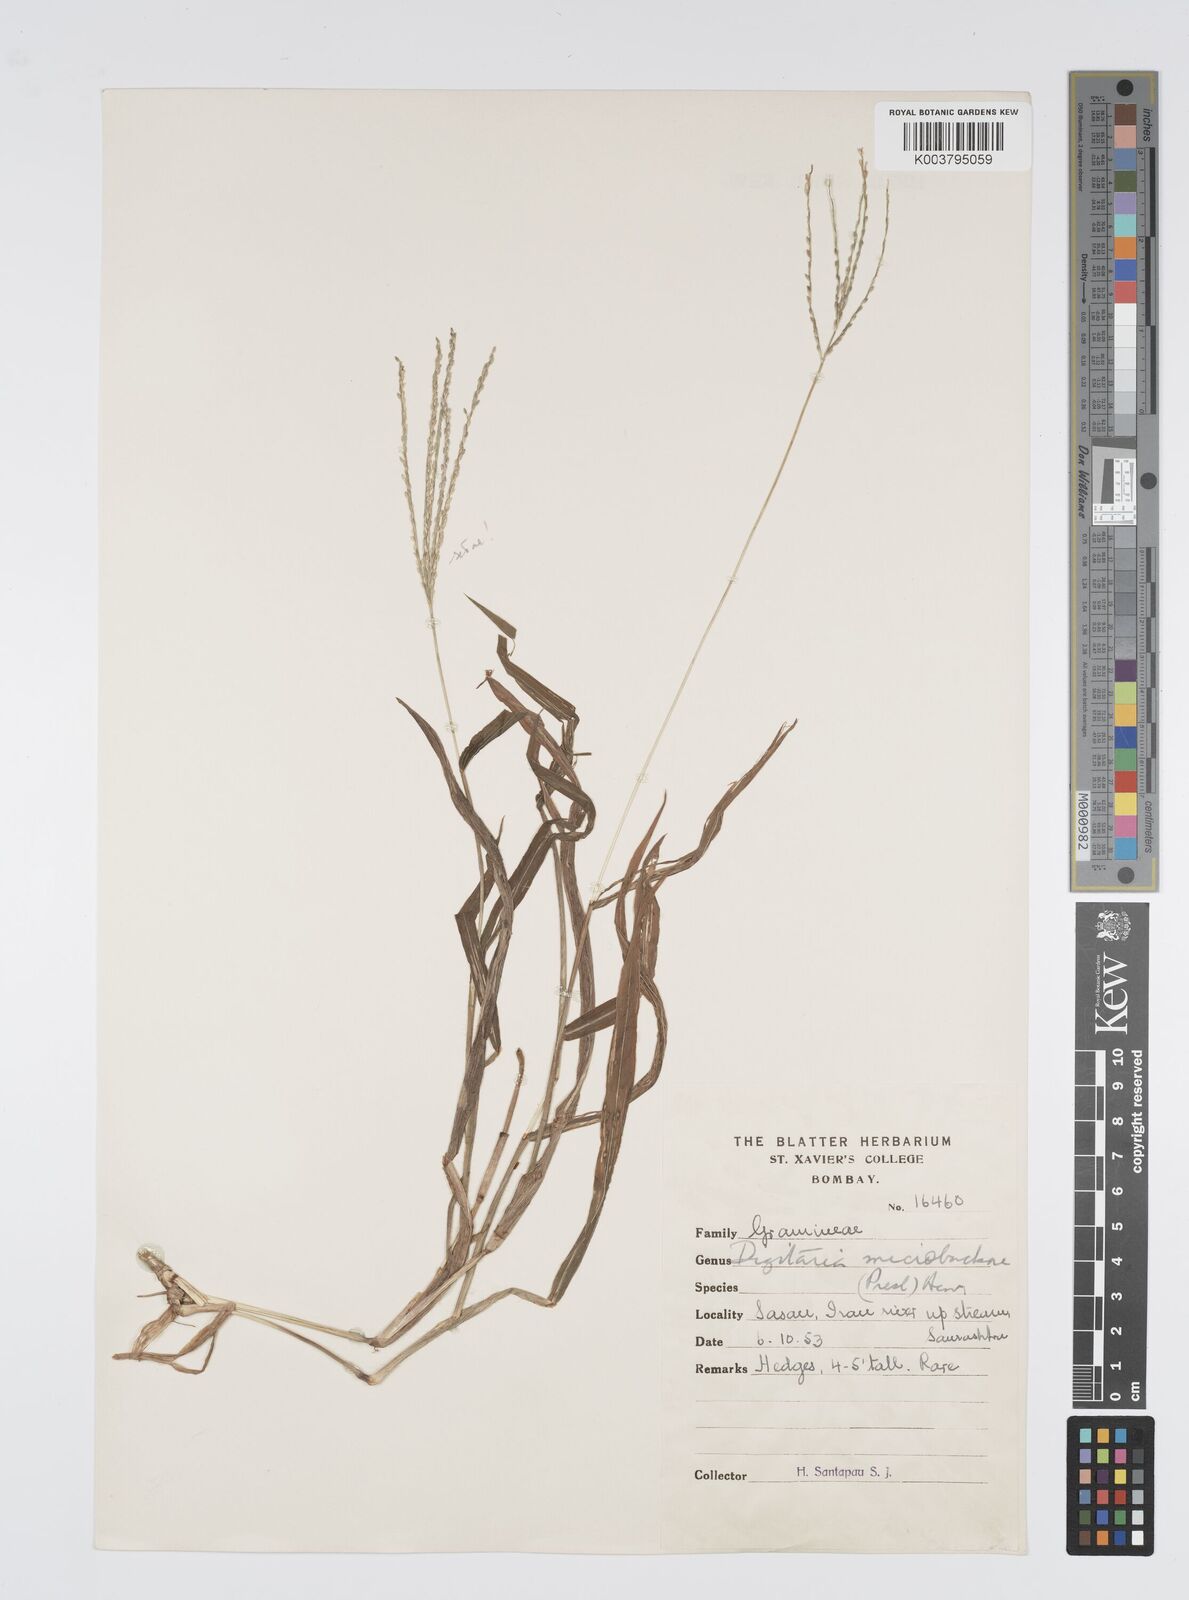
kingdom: Plantae
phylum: Tracheophyta
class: Liliopsida
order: Poales
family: Poaceae
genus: Digitaria
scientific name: Digitaria setigera
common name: East indian crabgrass
